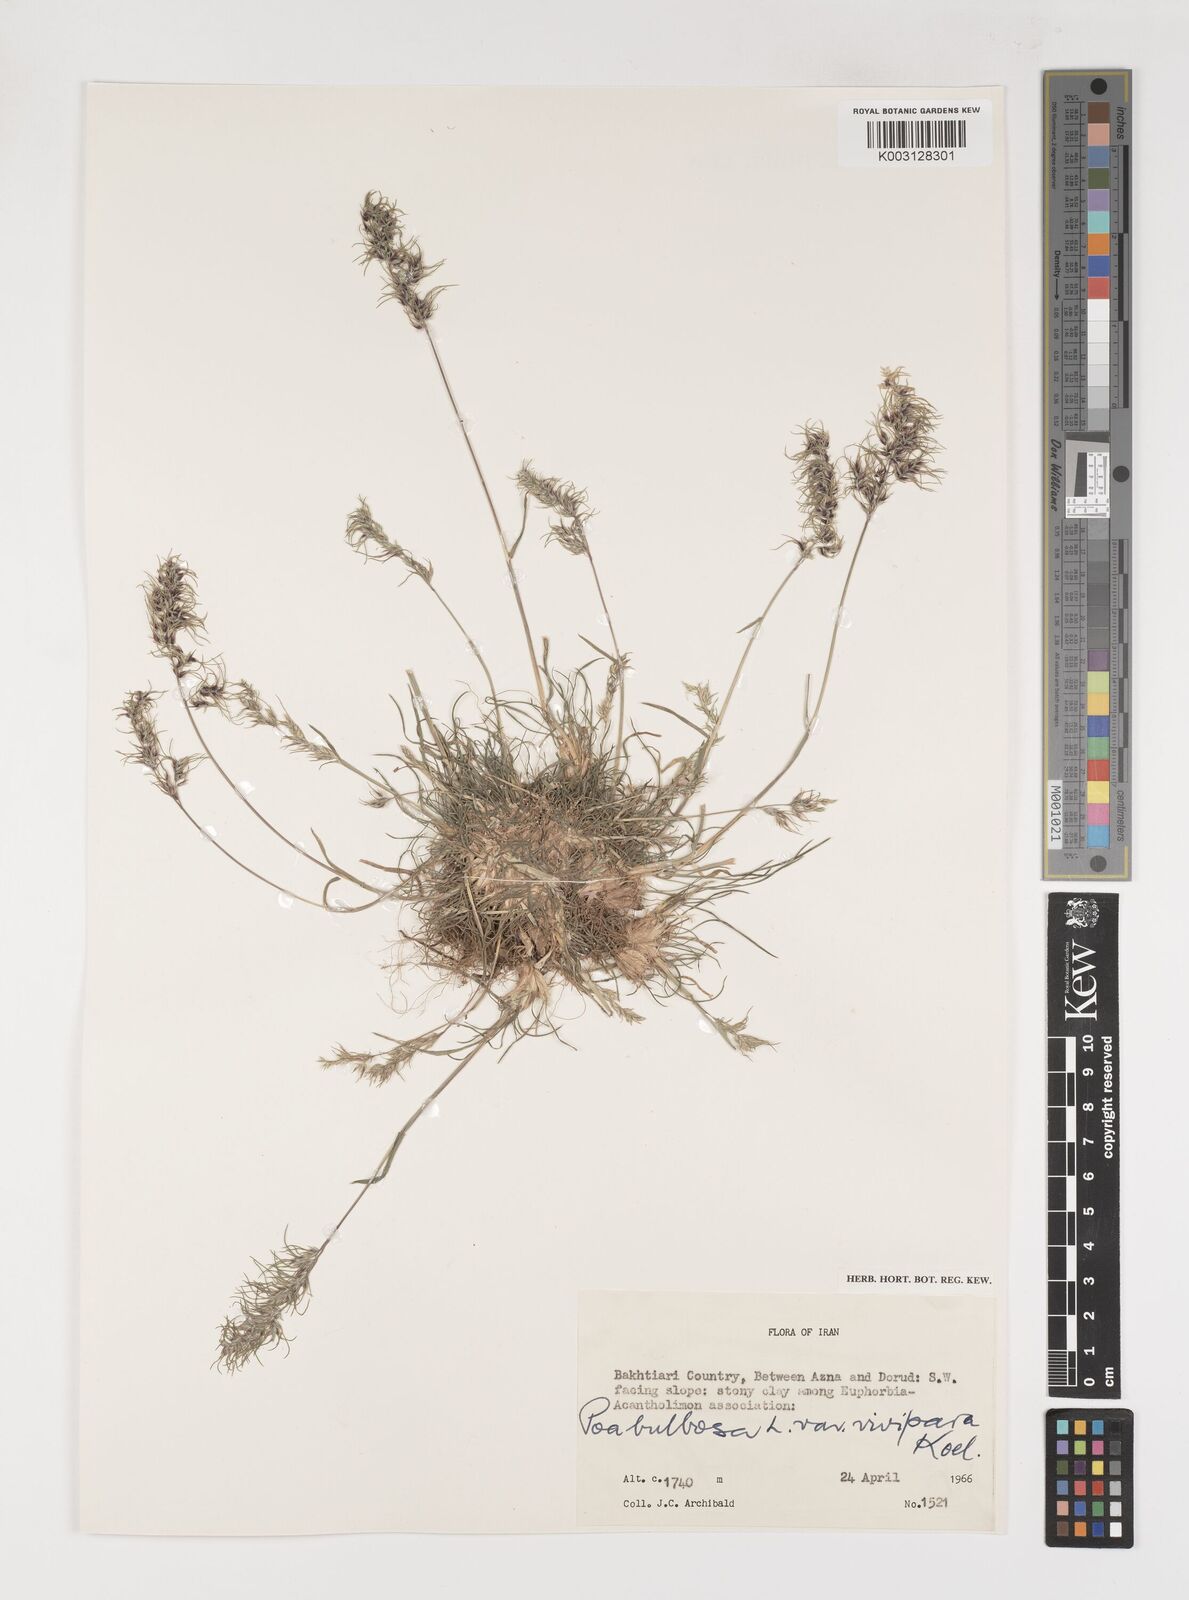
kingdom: Plantae
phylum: Tracheophyta
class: Liliopsida
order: Poales
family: Poaceae
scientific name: Poaceae
